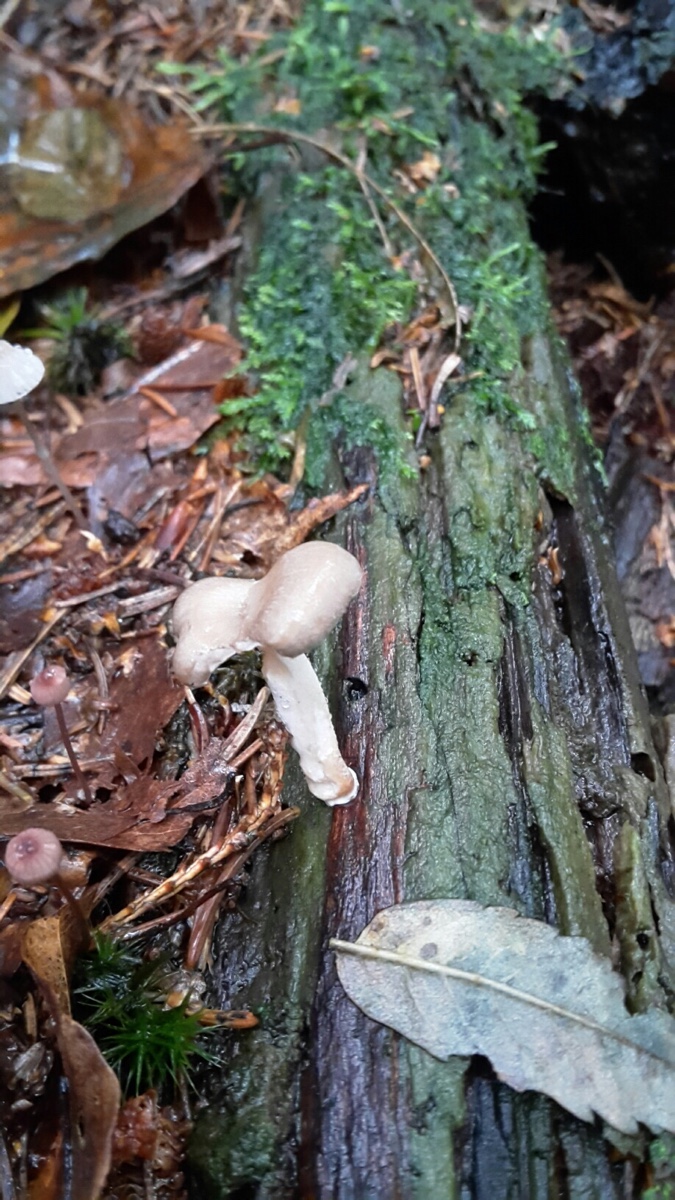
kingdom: Fungi
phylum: Basidiomycota
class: Agaricomycetes
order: Polyporales
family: Polyporaceae
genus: Picipes
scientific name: Picipes
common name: stilkporesvamp
